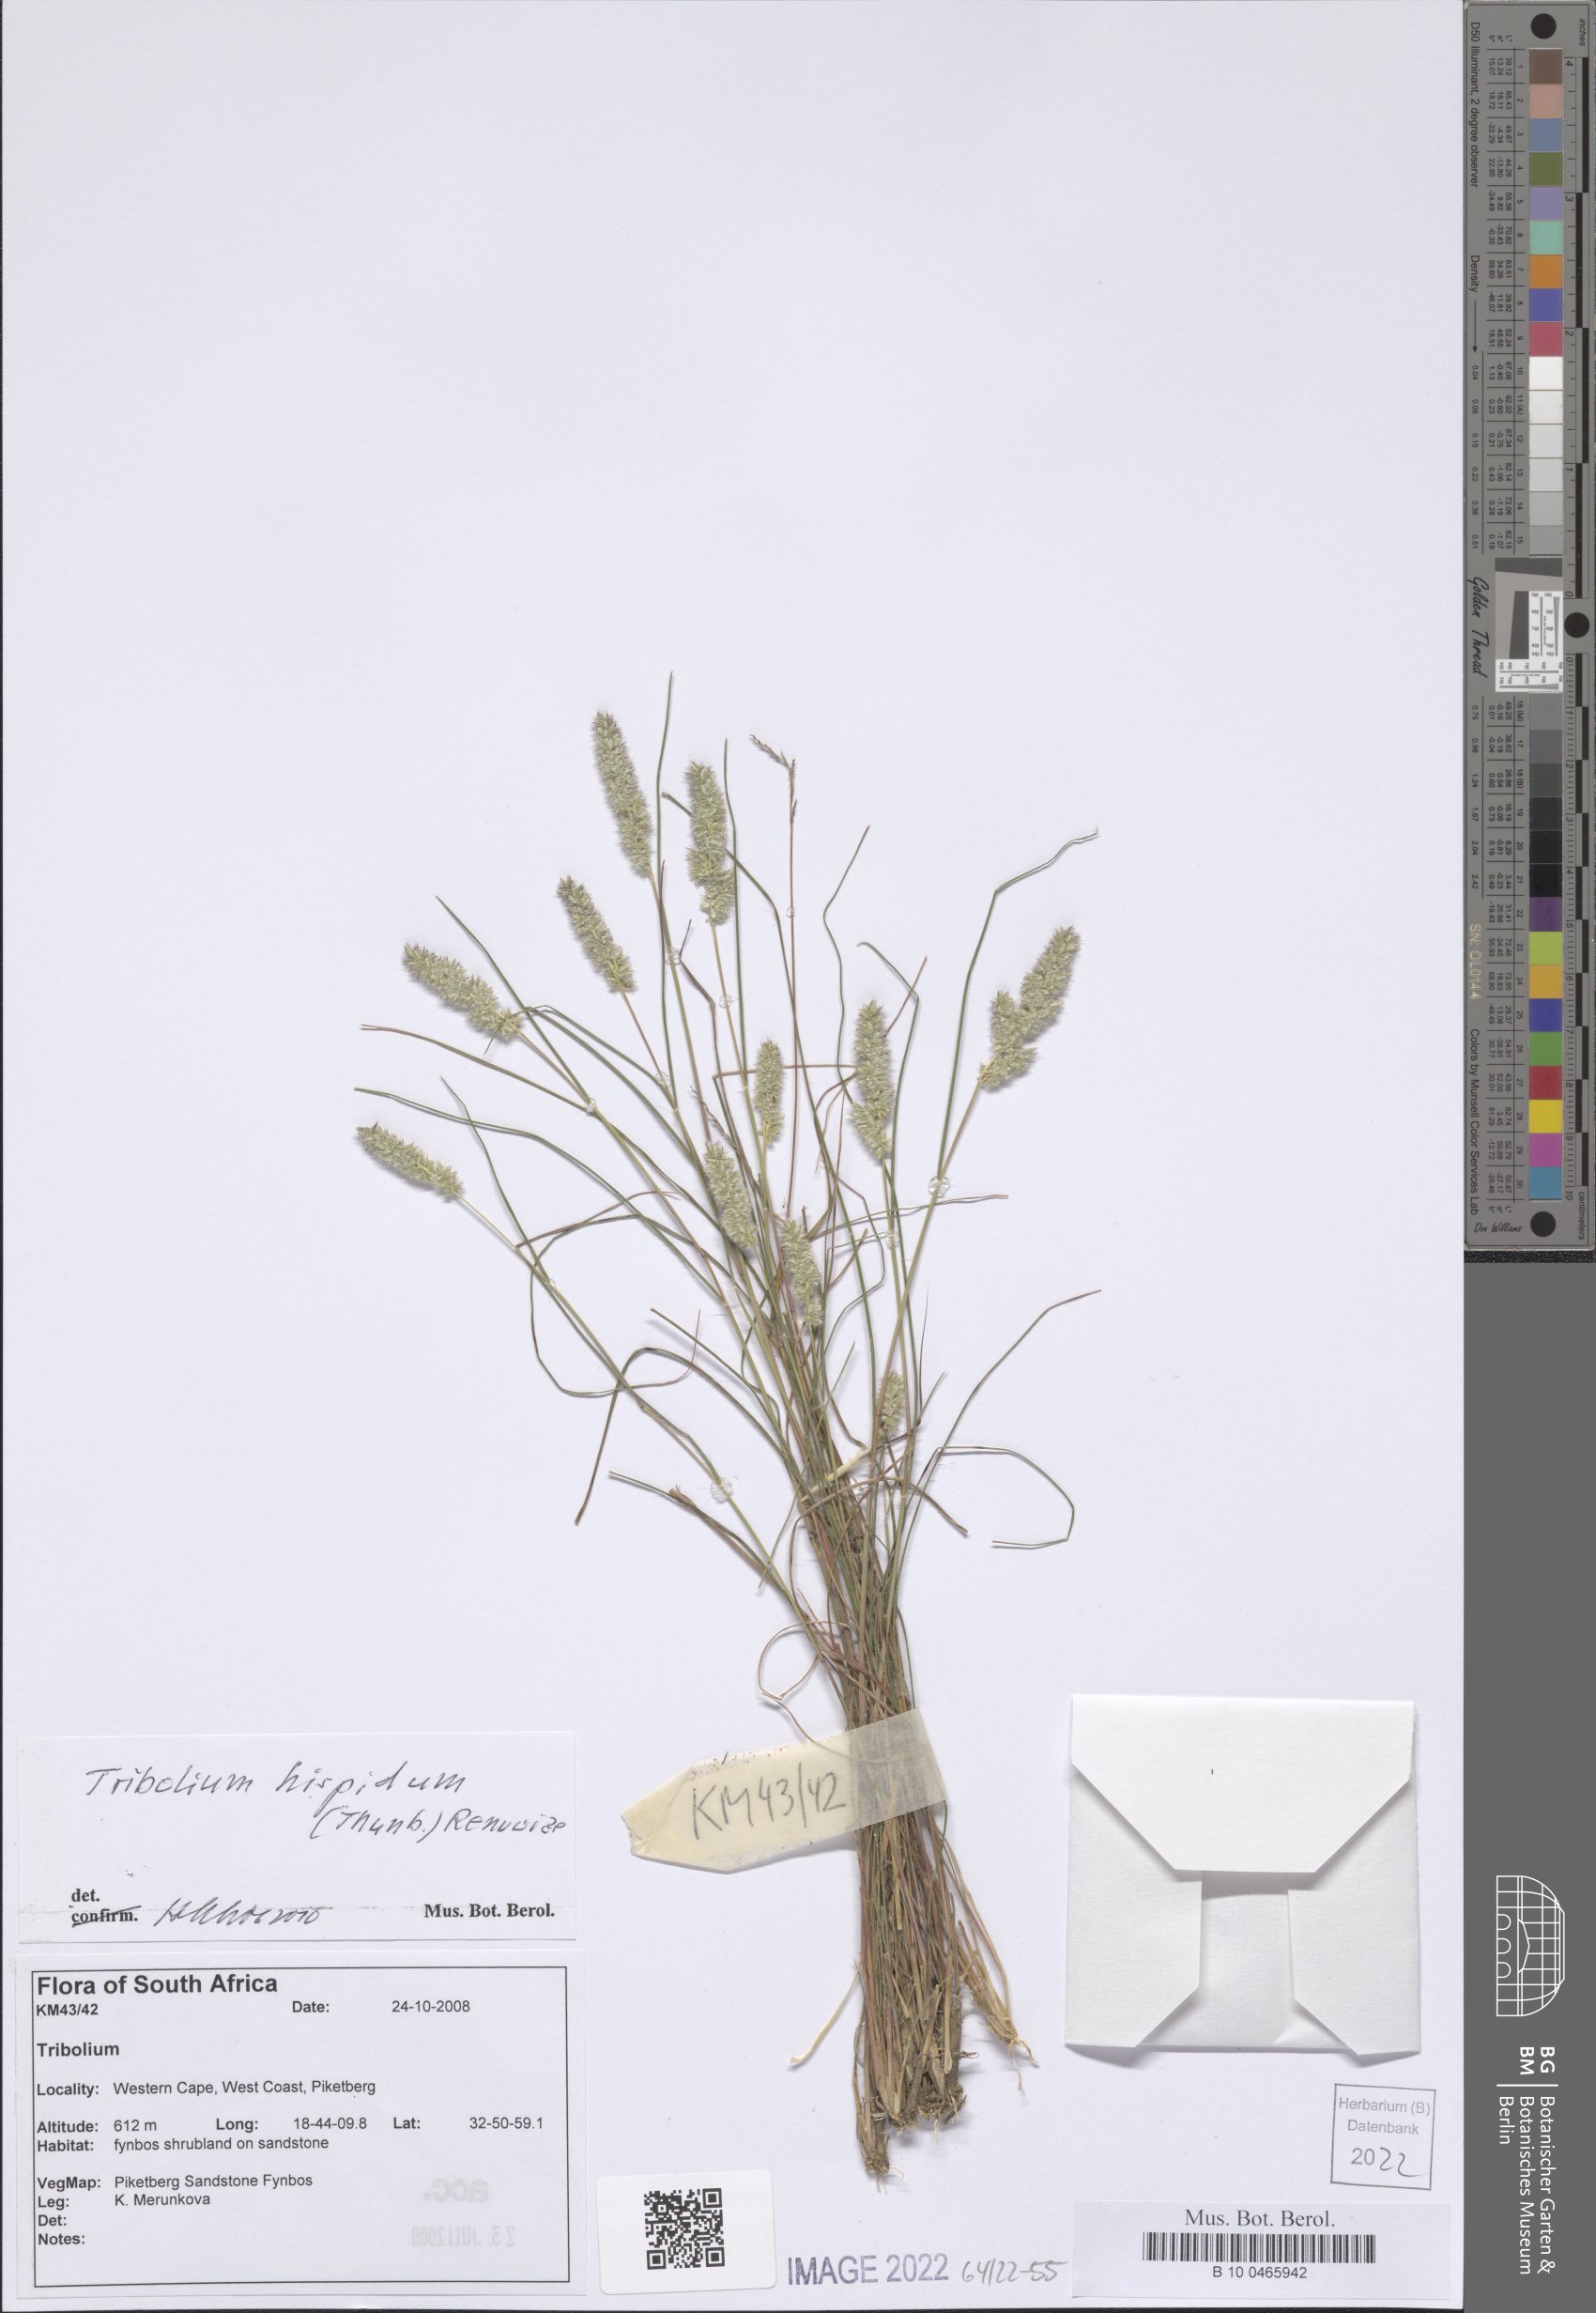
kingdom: Plantae
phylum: Tracheophyta
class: Liliopsida
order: Poales
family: Poaceae
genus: Tribolium
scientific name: Tribolium hispidum
